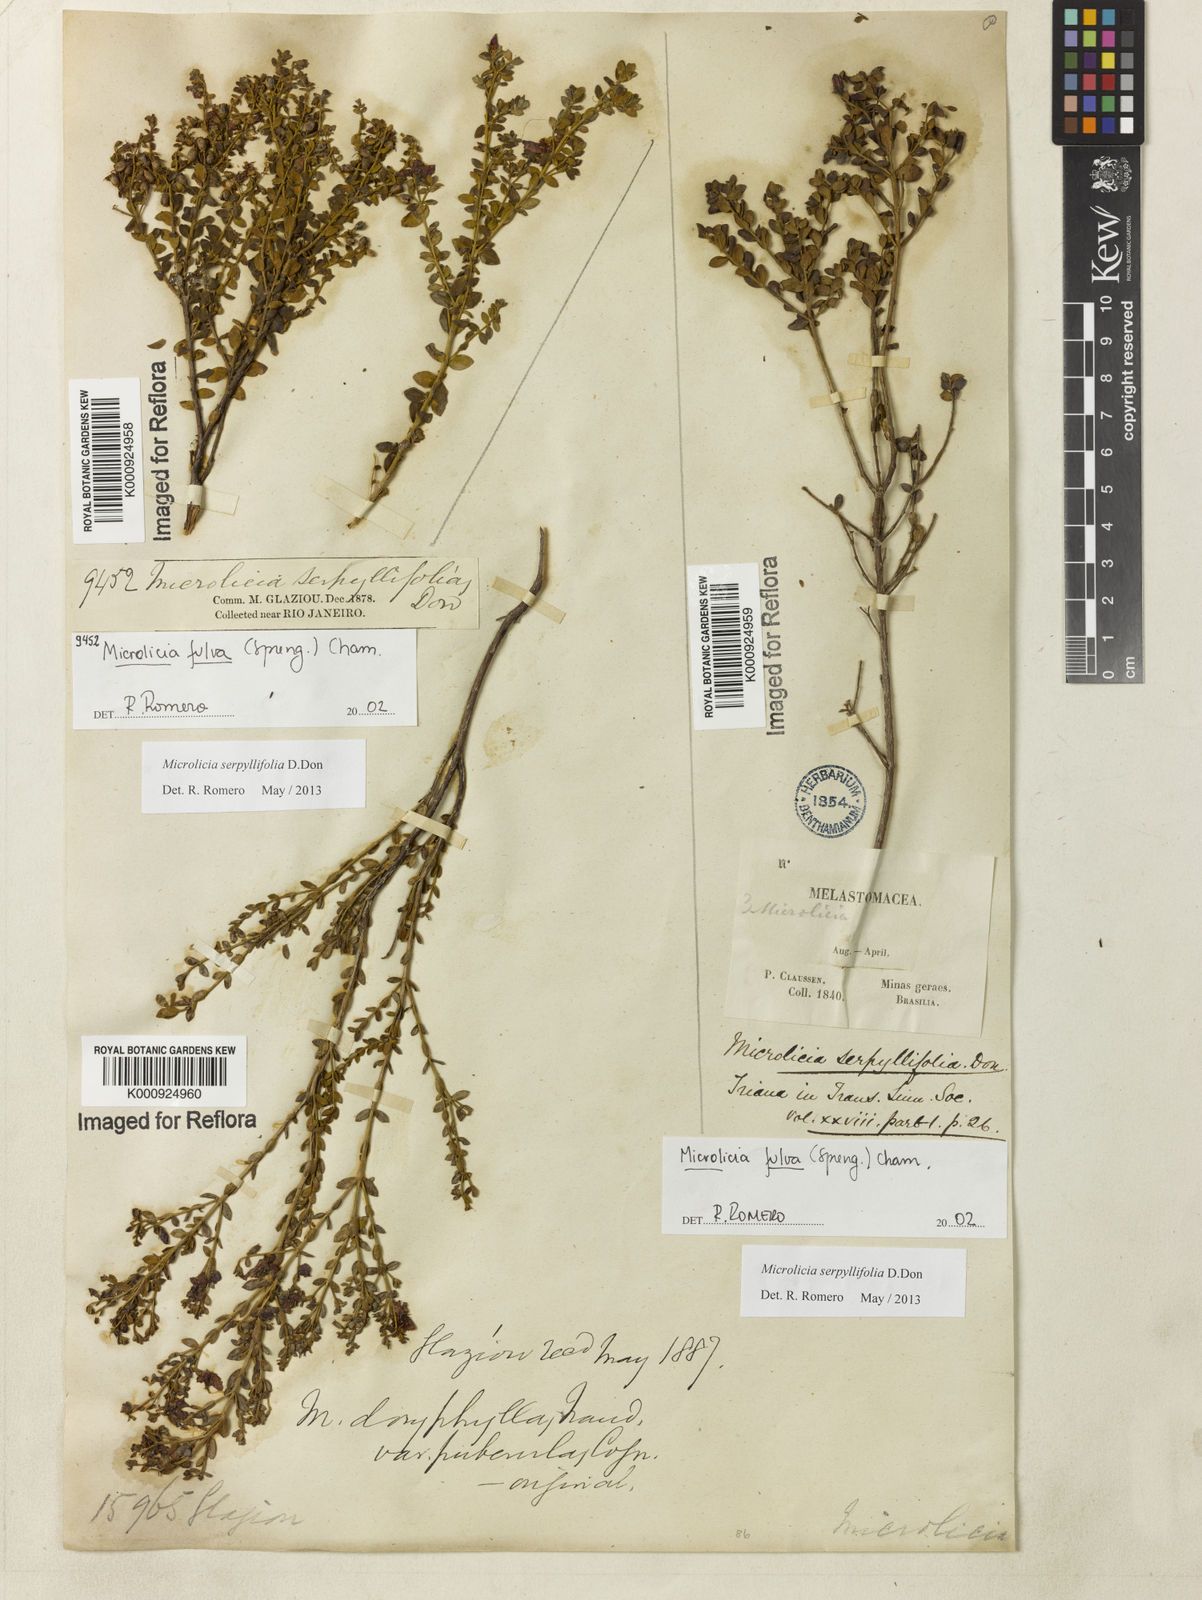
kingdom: Plantae
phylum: Tracheophyta
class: Magnoliopsida
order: Myrtales
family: Melastomataceae
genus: Microlicia
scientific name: Microlicia fulva
